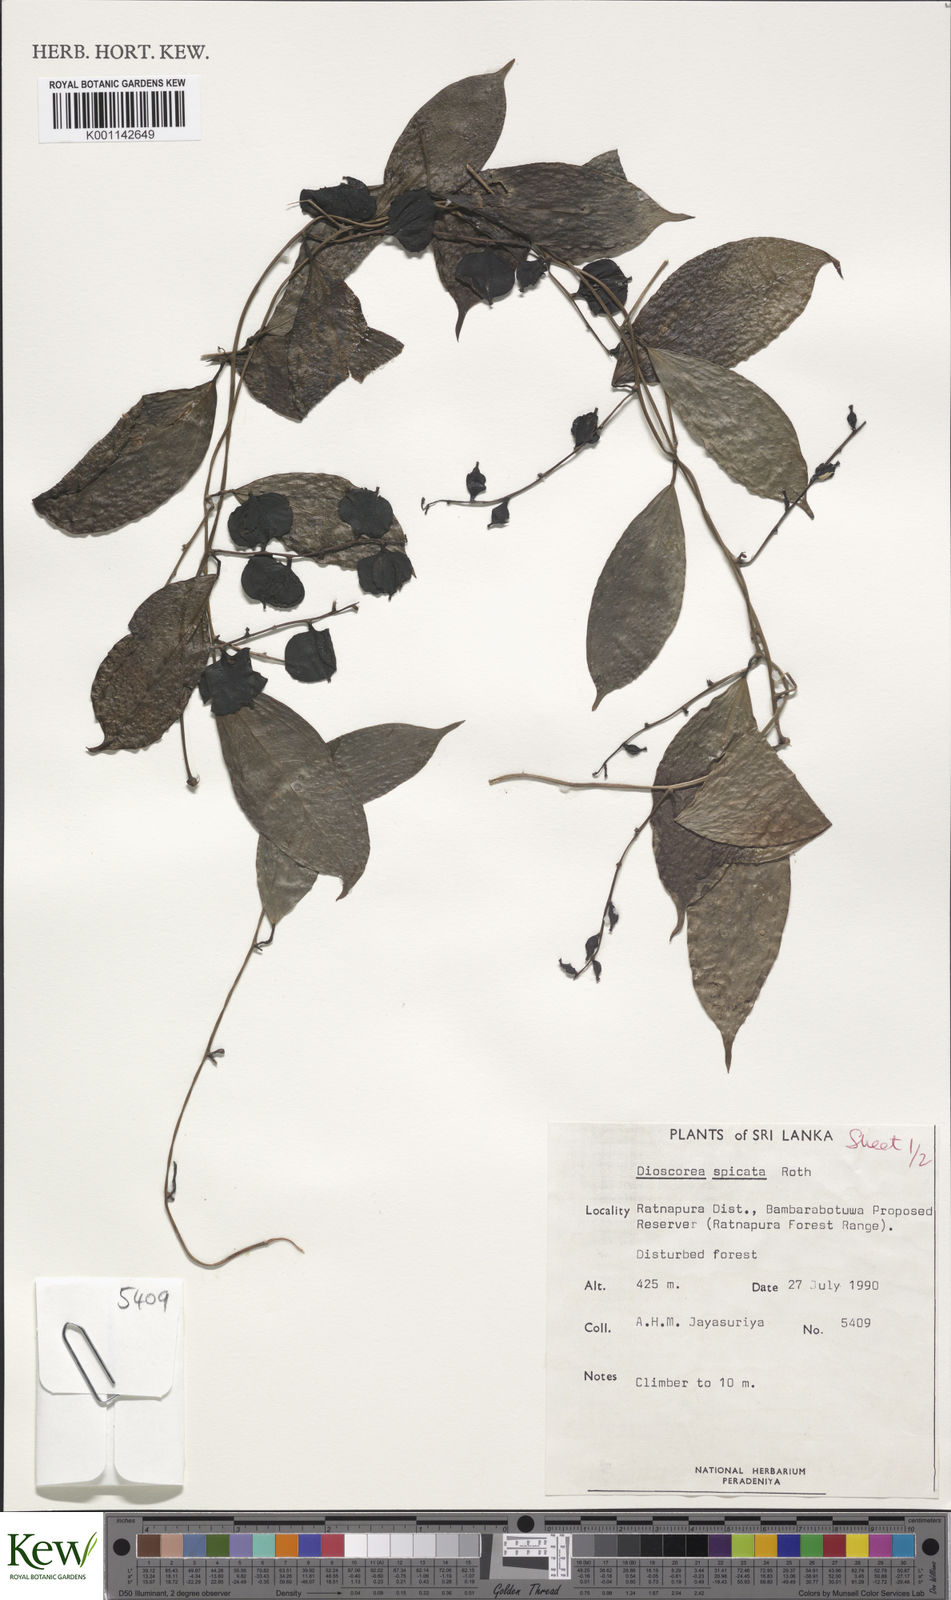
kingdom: Plantae
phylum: Tracheophyta
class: Liliopsida
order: Dioscoreales
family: Dioscoreaceae
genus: Dioscorea
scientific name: Dioscorea spicata
